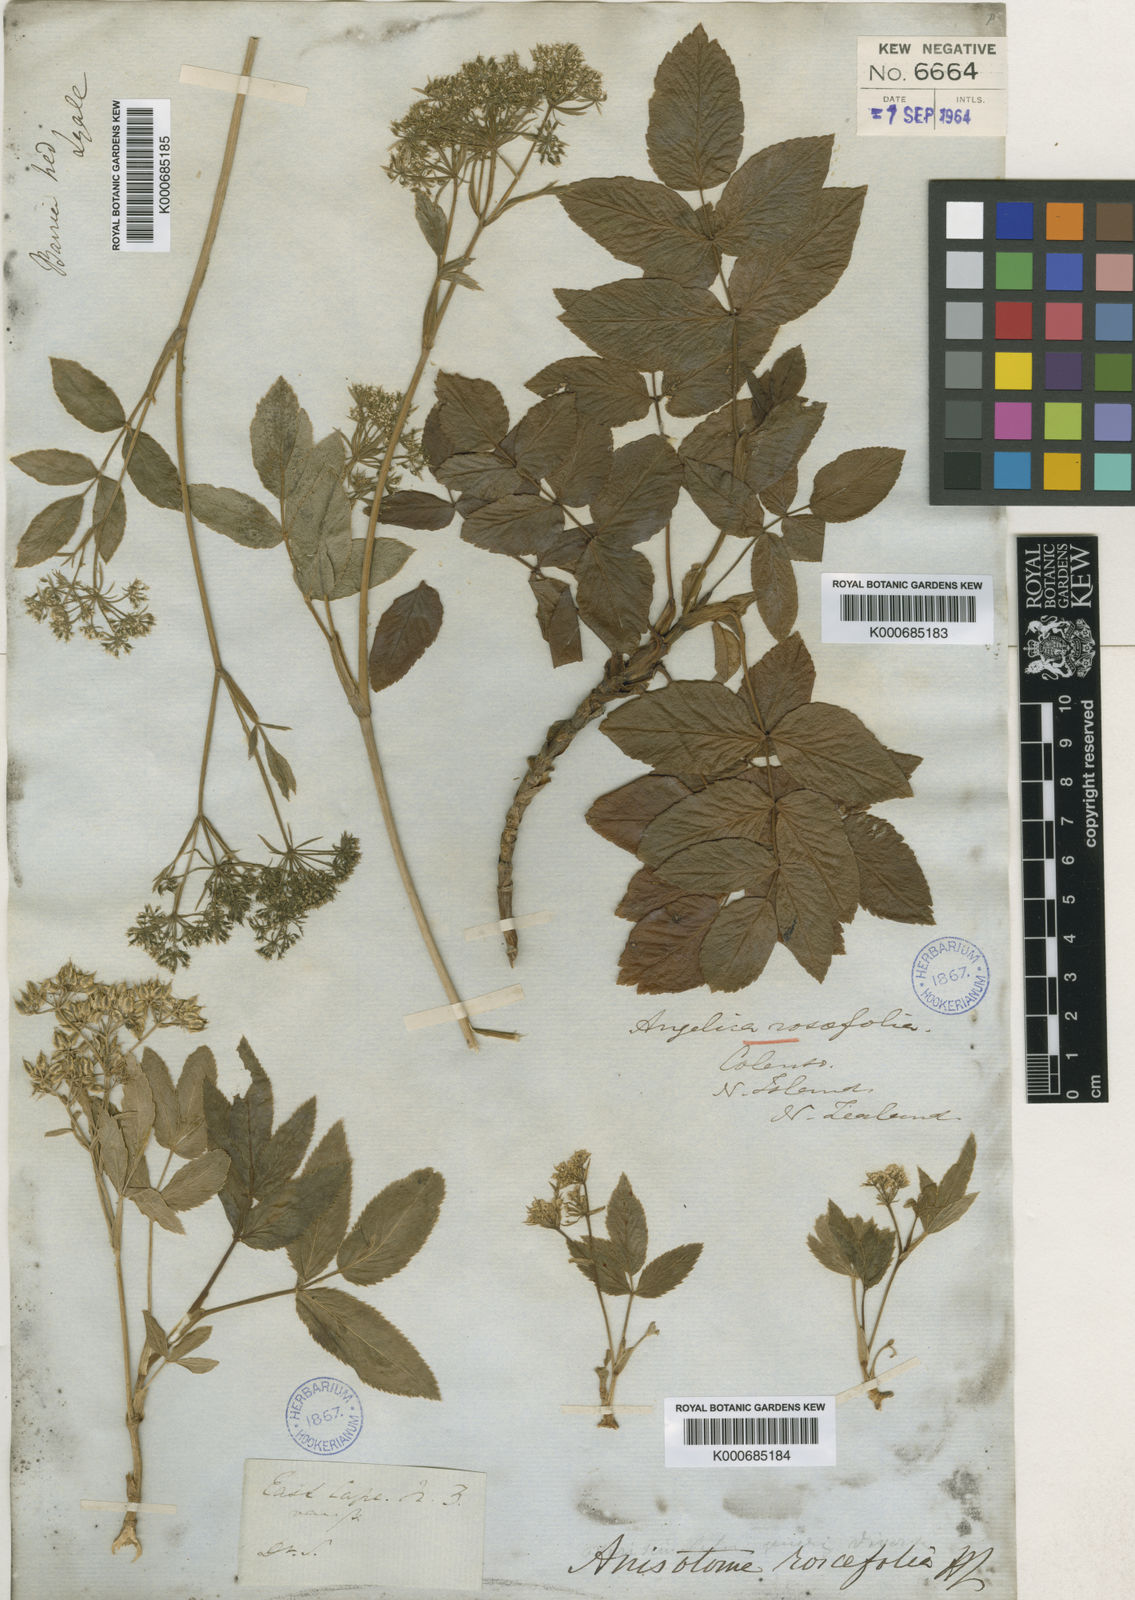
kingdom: Plantae
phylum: Tracheophyta
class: Magnoliopsida
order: Apiales
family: Apiaceae
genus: Scandia
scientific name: Scandia rosifolia
